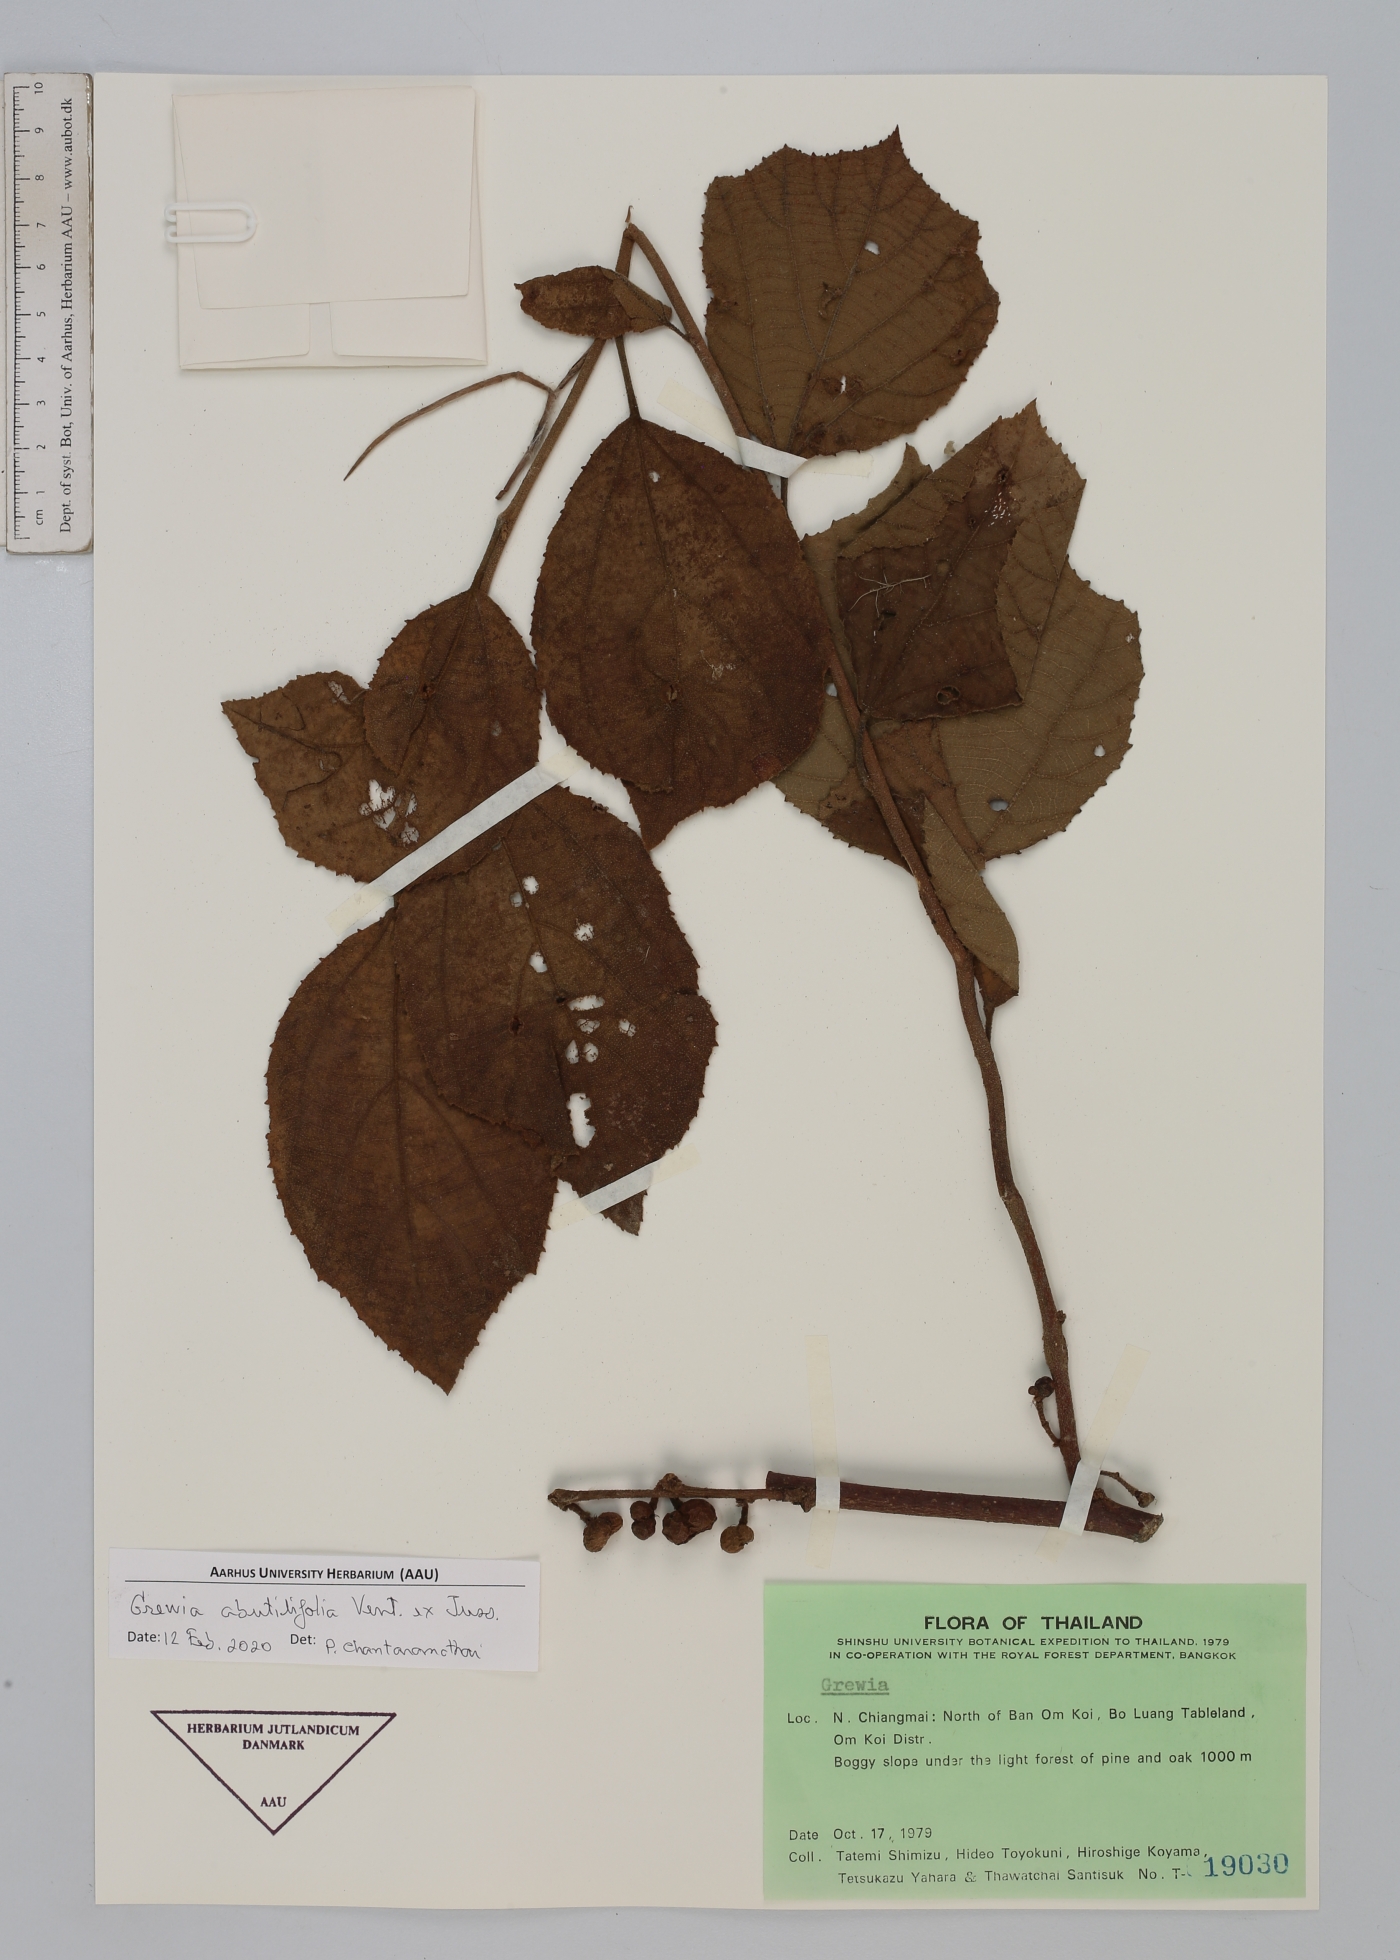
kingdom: Plantae
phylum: Tracheophyta
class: Magnoliopsida
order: Malvales
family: Malvaceae
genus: Grewia
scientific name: Grewia abutilifolia
